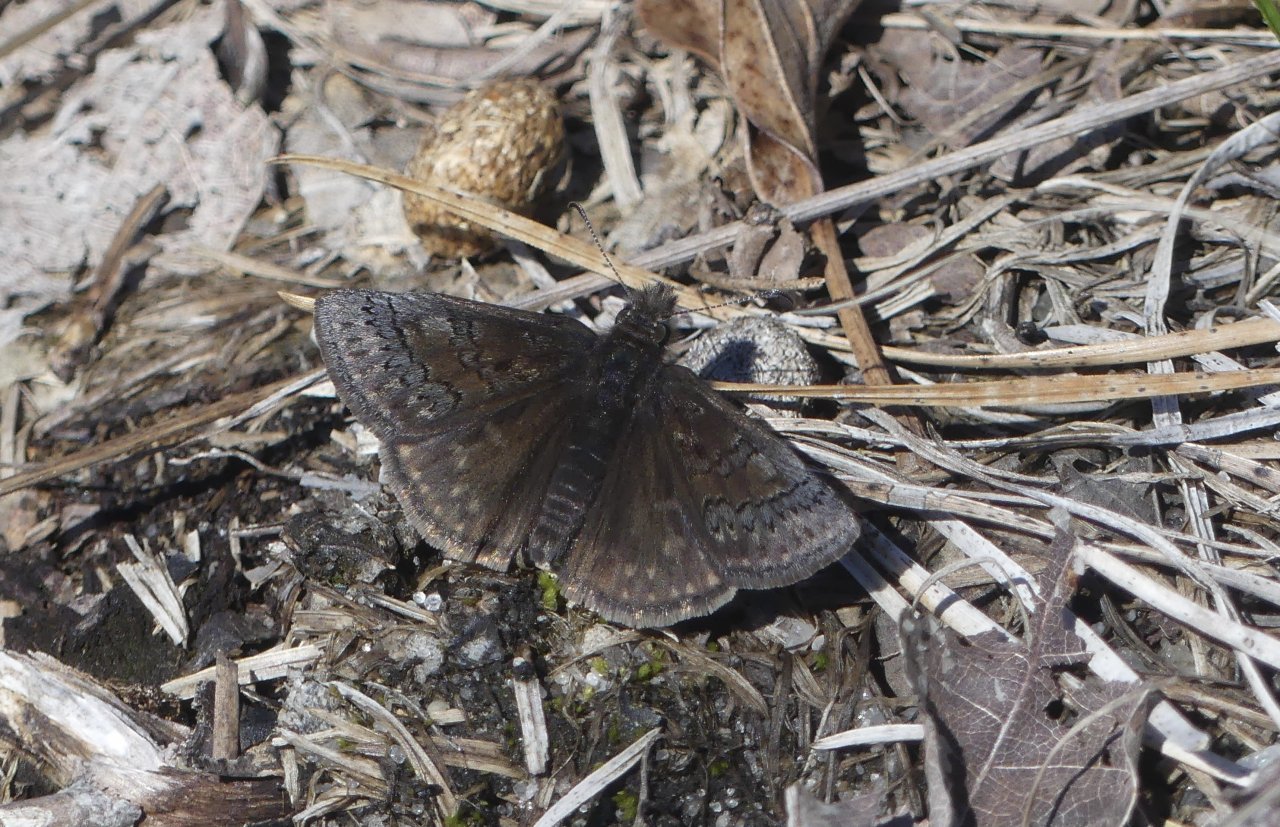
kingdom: Animalia
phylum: Arthropoda
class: Insecta
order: Lepidoptera
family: Hesperiidae
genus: Erynnis
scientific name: Erynnis brizo
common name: Sleepy Duskywing
